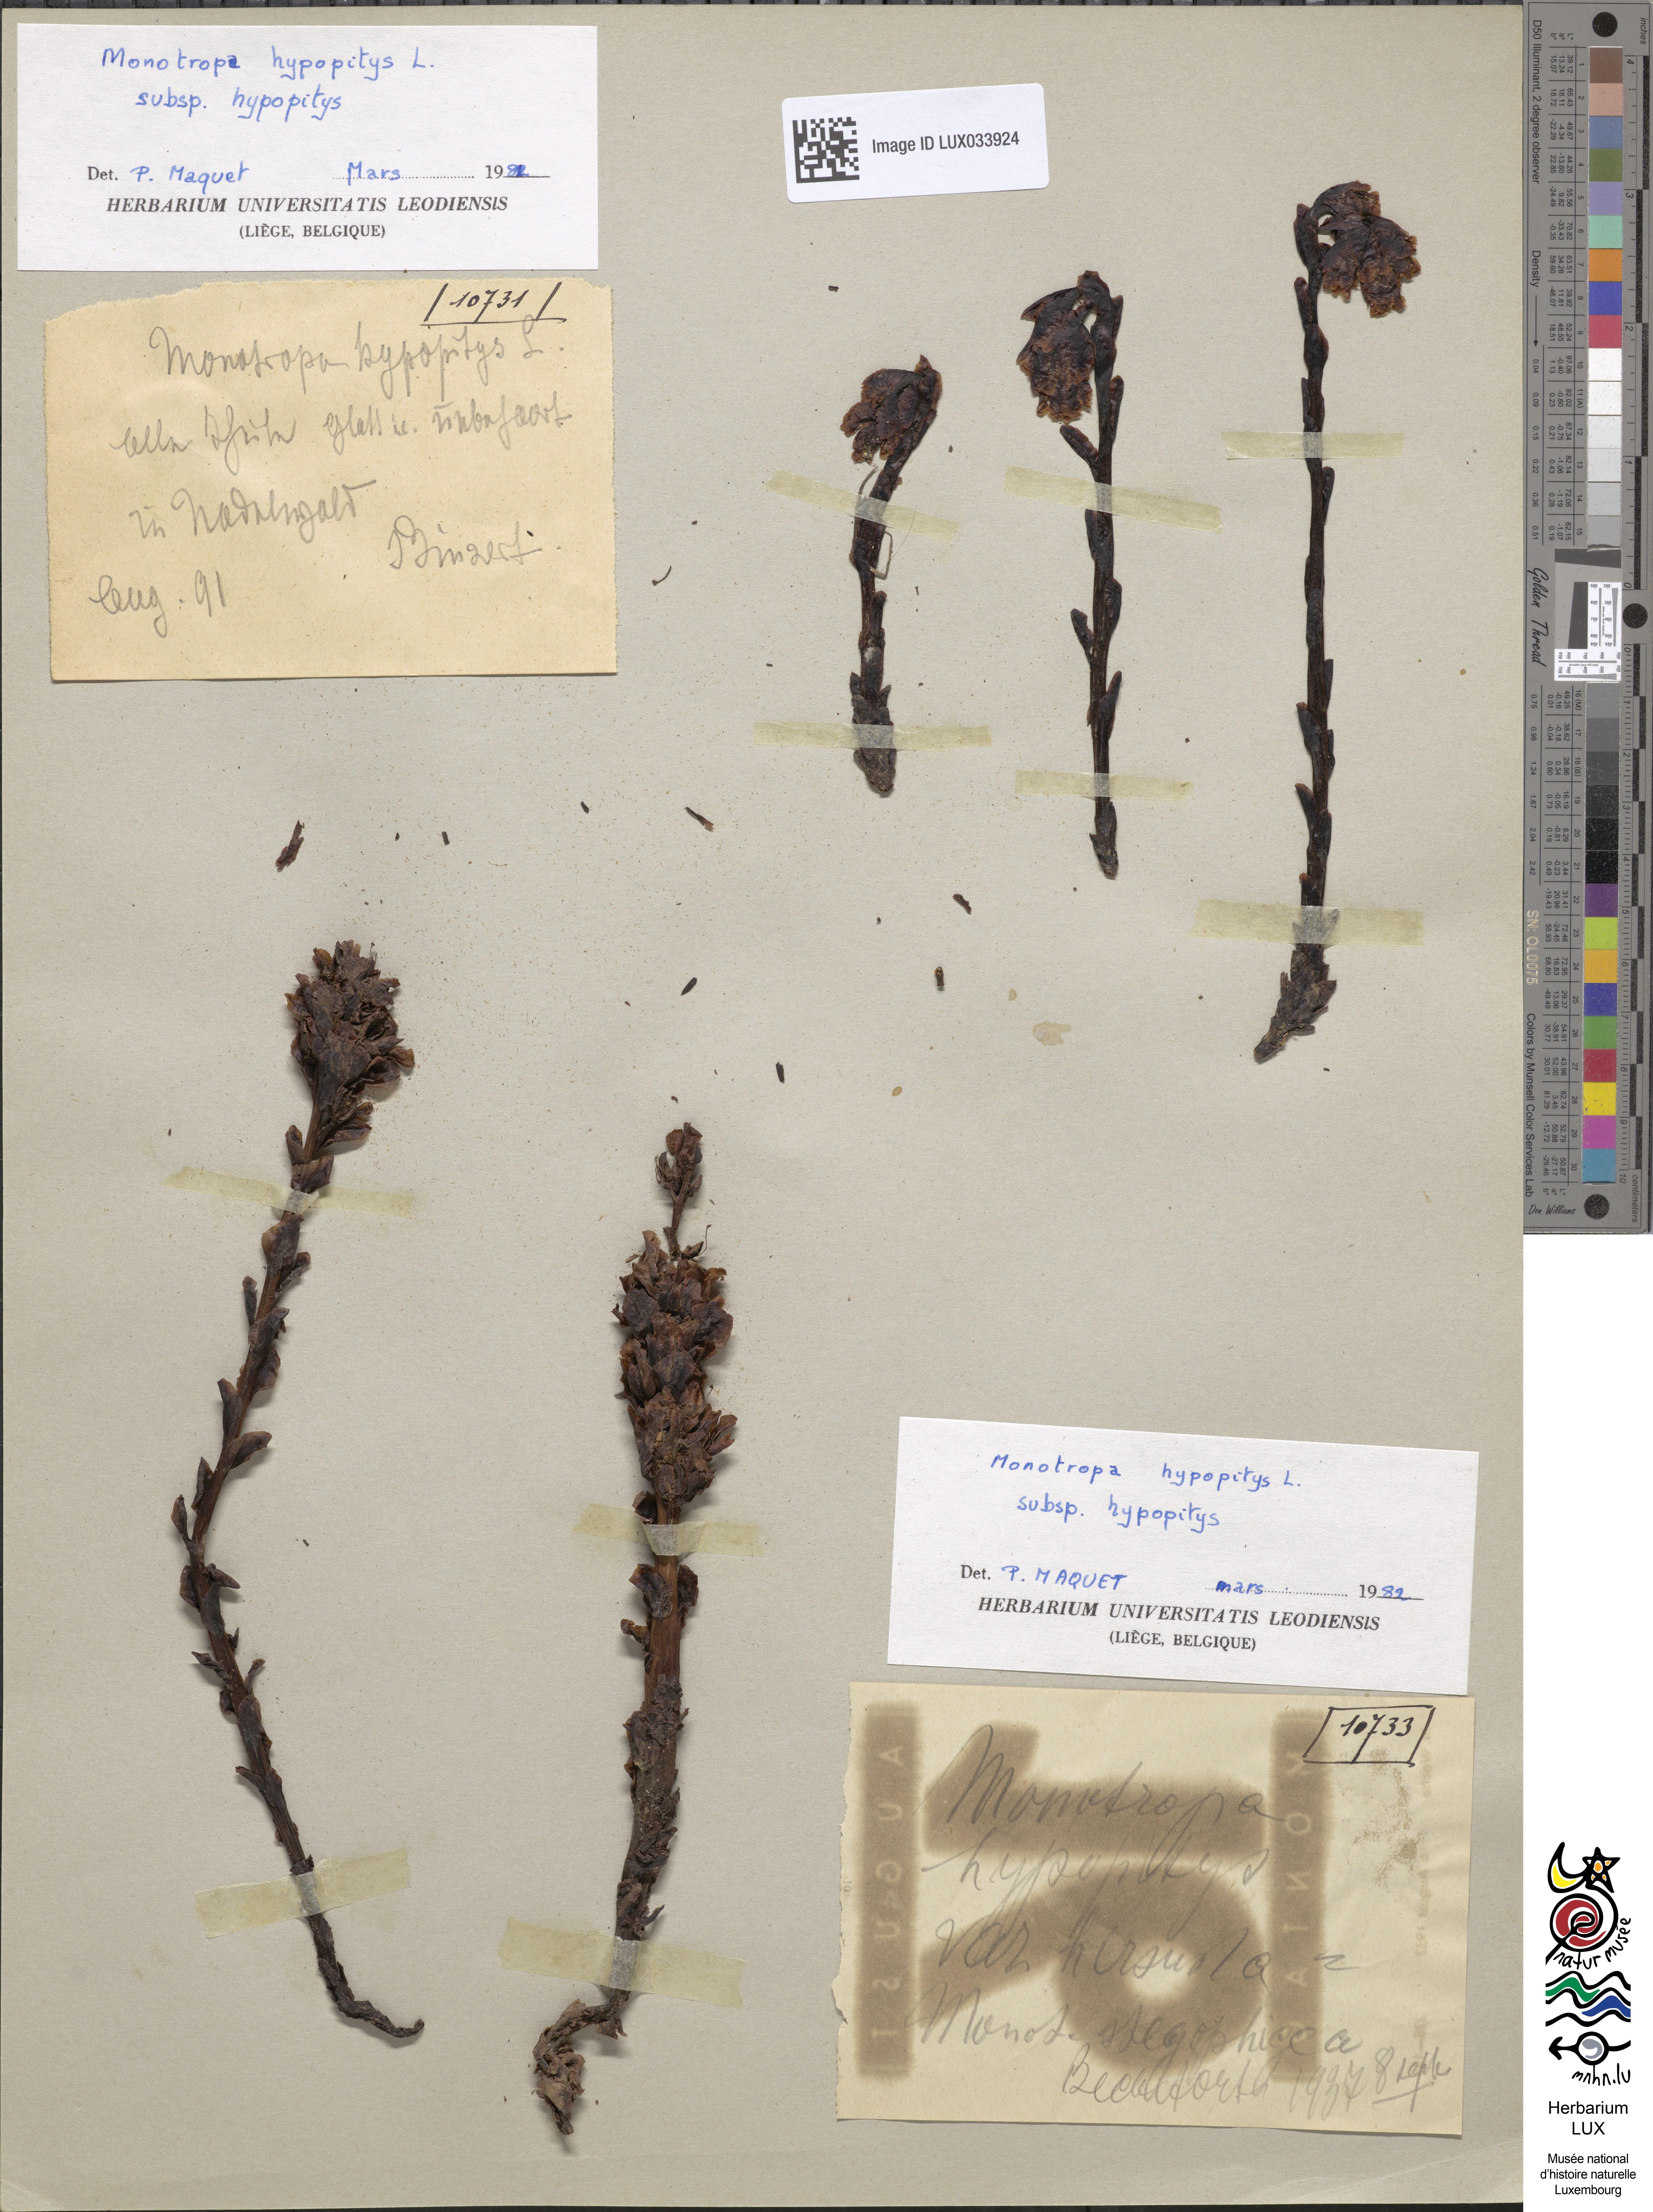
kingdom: Plantae
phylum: Tracheophyta
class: Magnoliopsida
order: Ericales
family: Ericaceae
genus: Hypopitys
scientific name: Hypopitys monotropa
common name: Yellow bird's-nest
